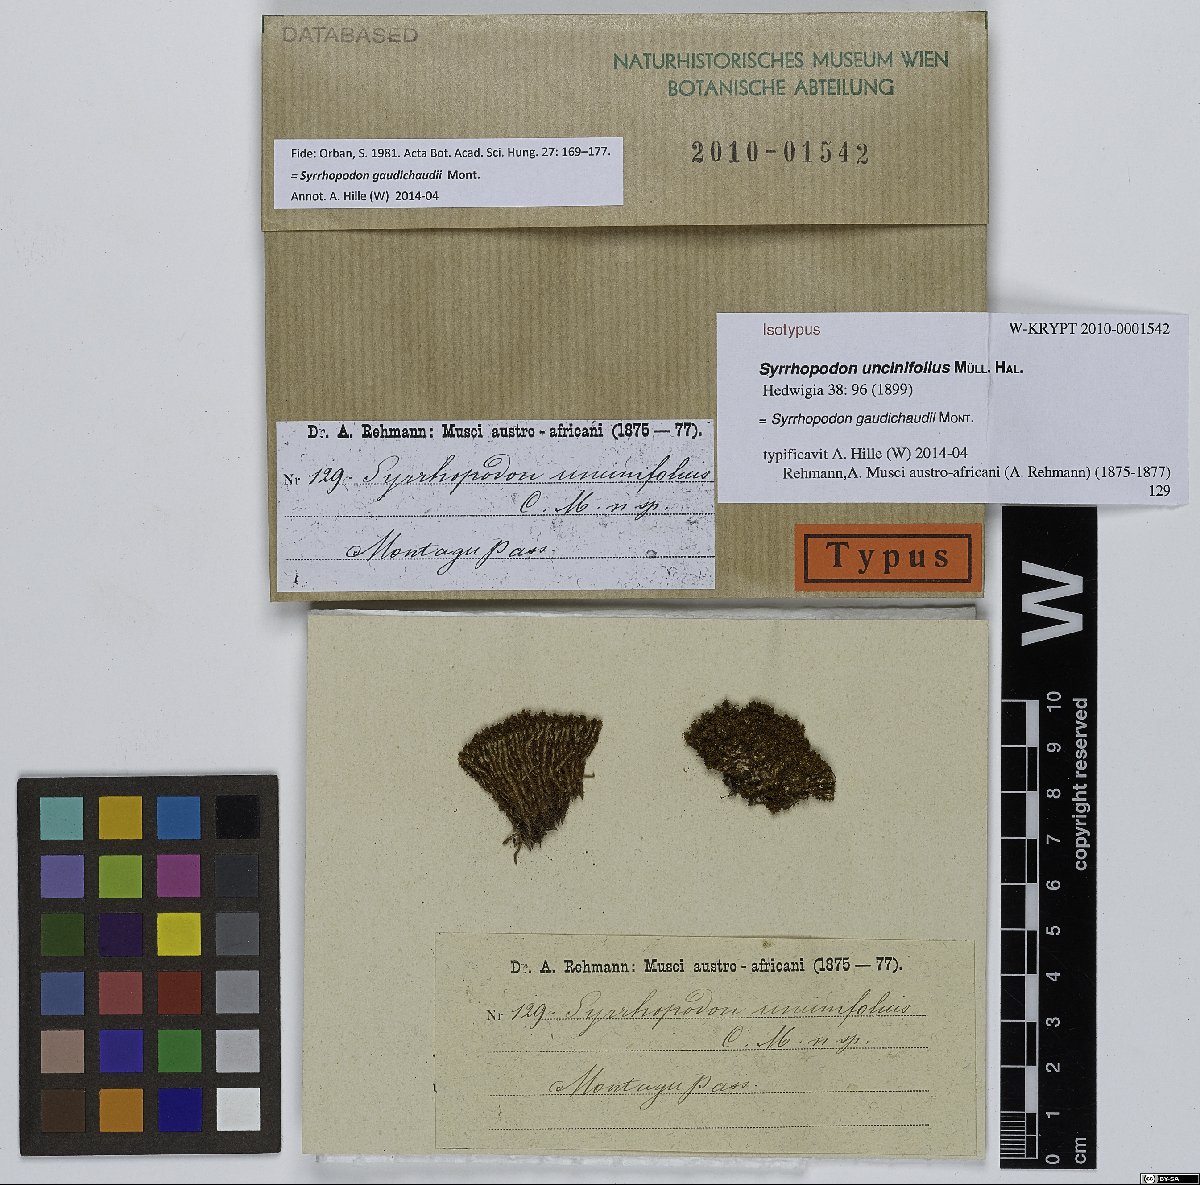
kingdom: Plantae
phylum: Bryophyta
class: Bryopsida
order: Dicranales
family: Calymperaceae
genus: Syrrhopodon
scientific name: Syrrhopodon gaudichaudii
